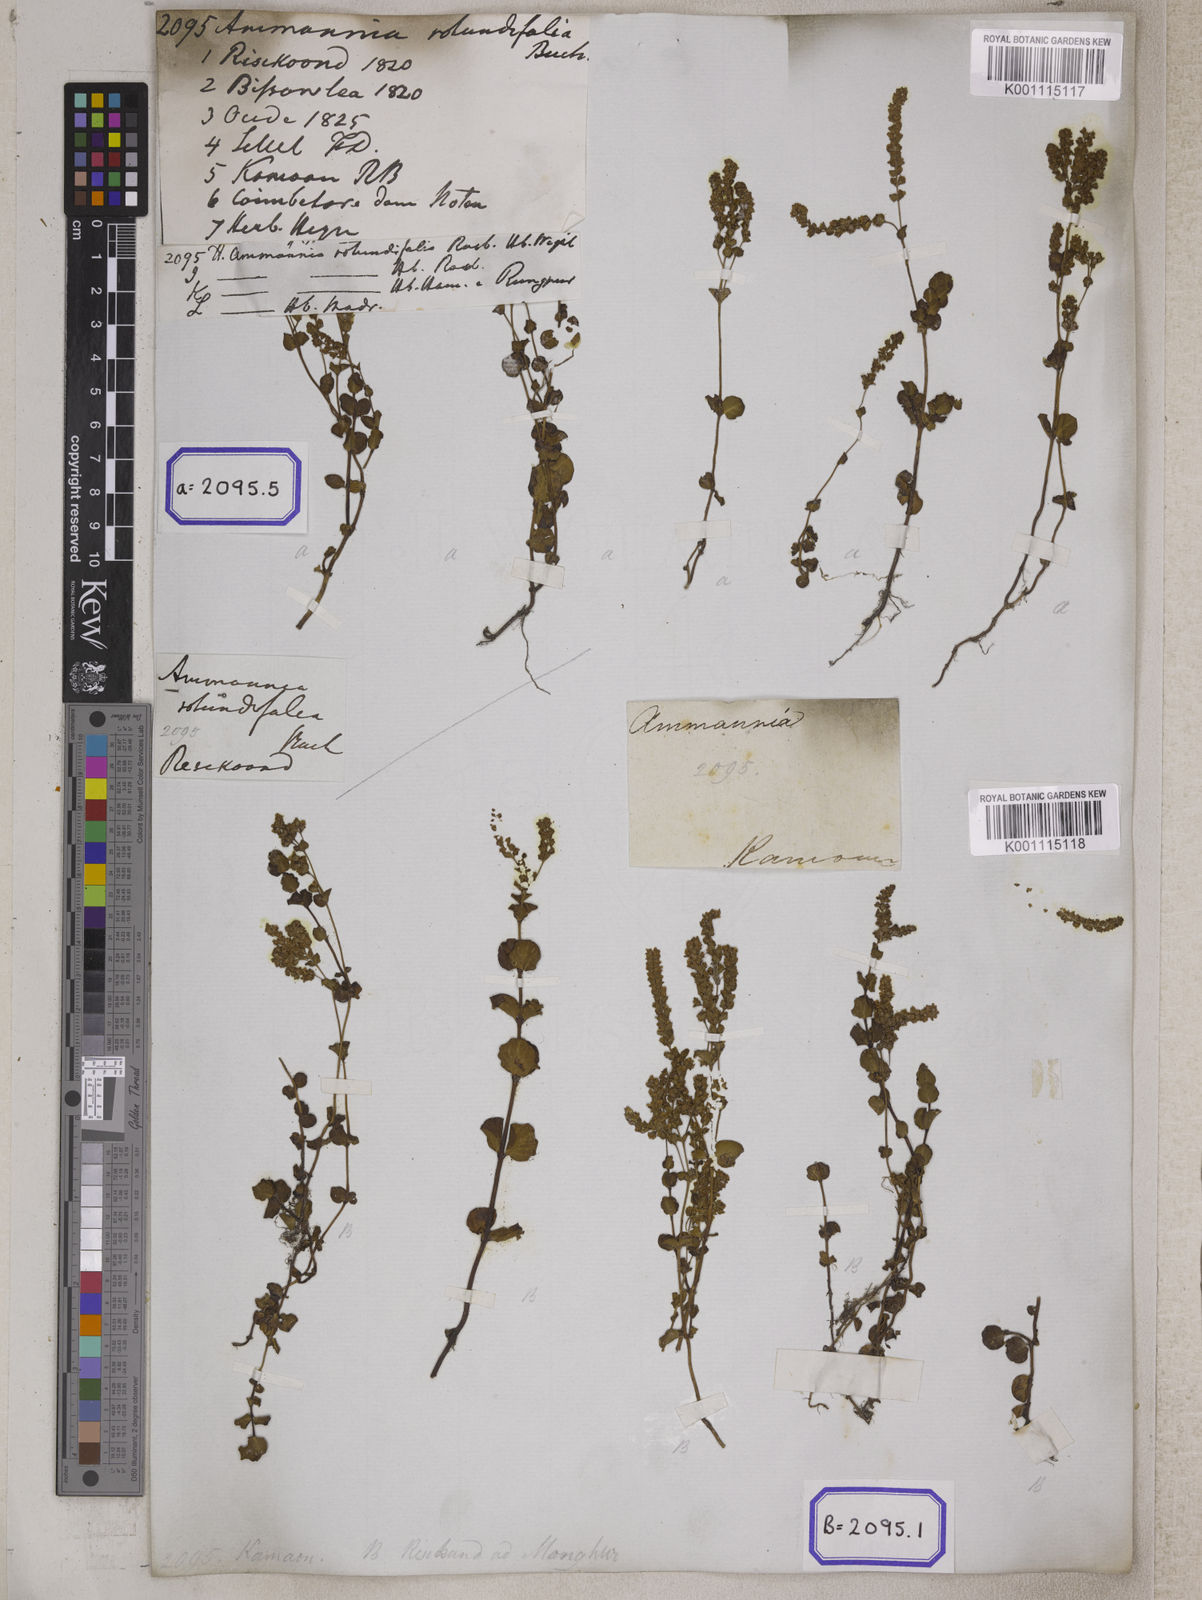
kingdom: Plantae
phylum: Tracheophyta
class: Magnoliopsida
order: Myrtales
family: Lythraceae
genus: Ammannia
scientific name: Ammannia
